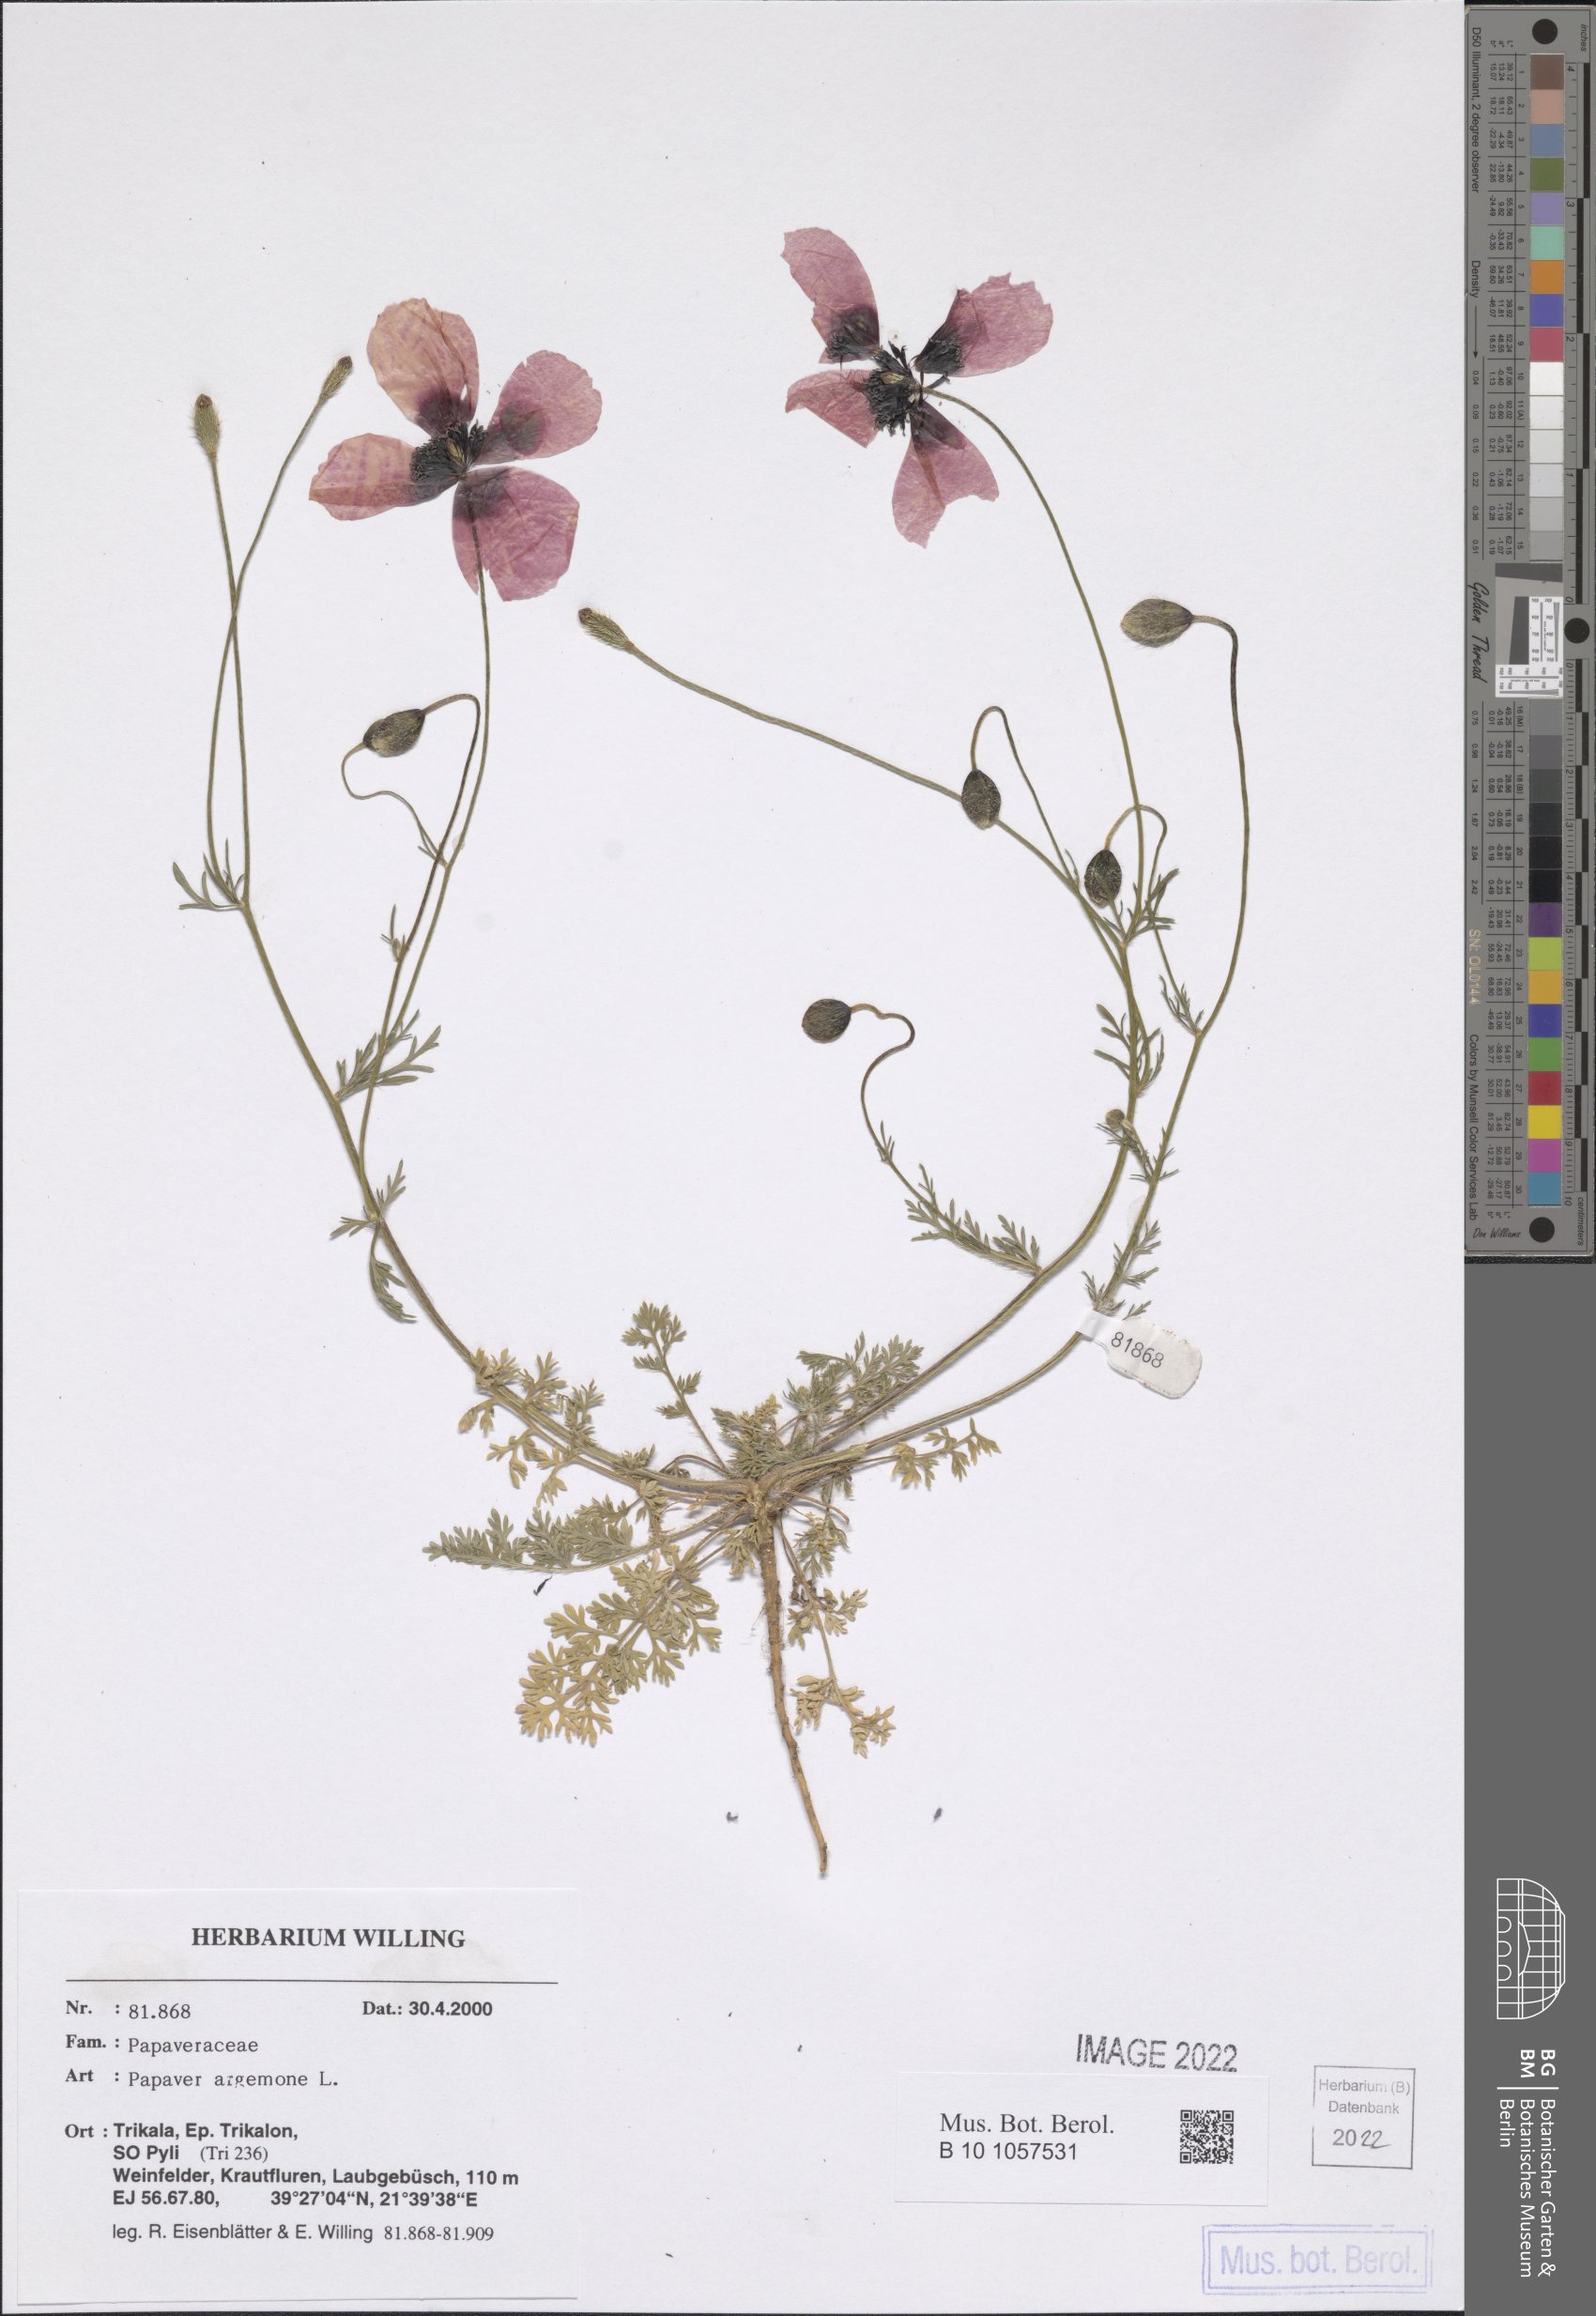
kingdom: Plantae
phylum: Tracheophyta
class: Magnoliopsida
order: Ranunculales
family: Papaveraceae
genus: Roemeria
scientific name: Roemeria argemone
